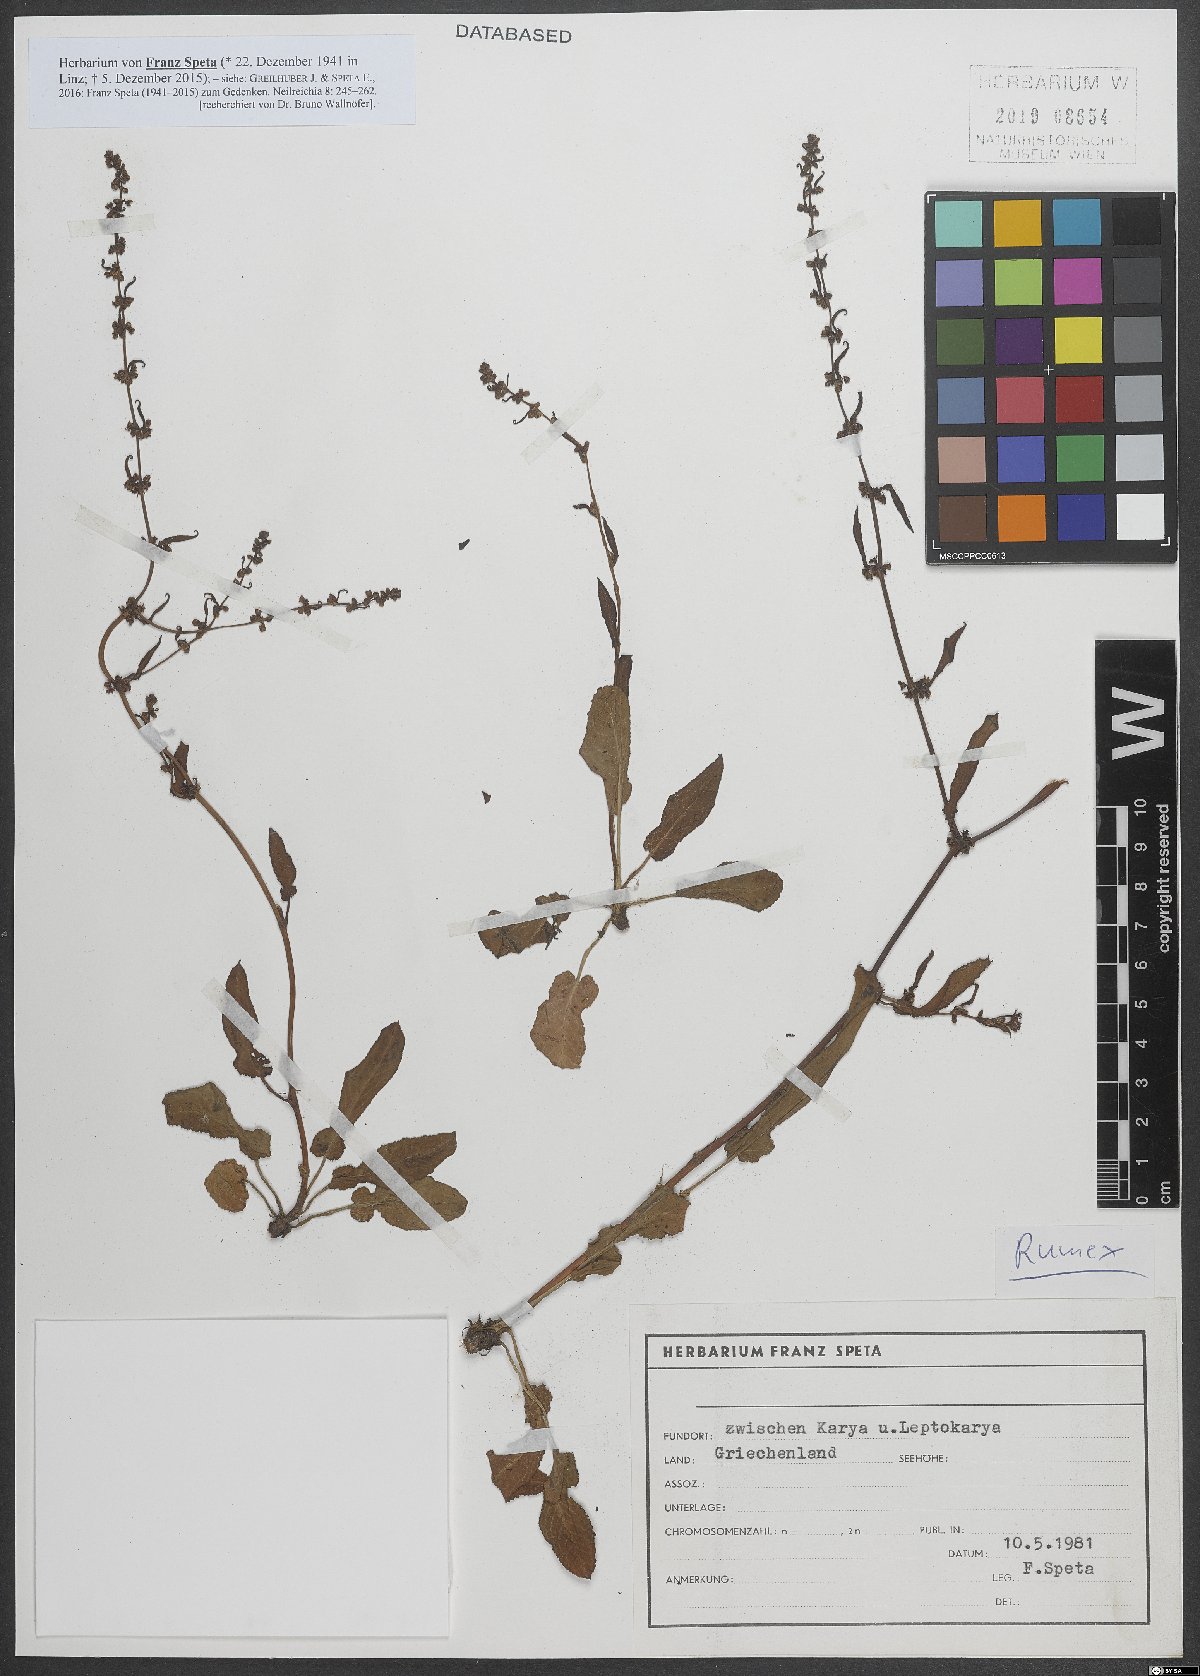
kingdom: Plantae
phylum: Tracheophyta
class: Magnoliopsida
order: Caryophyllales
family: Polygonaceae
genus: Rumex
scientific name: Rumex
